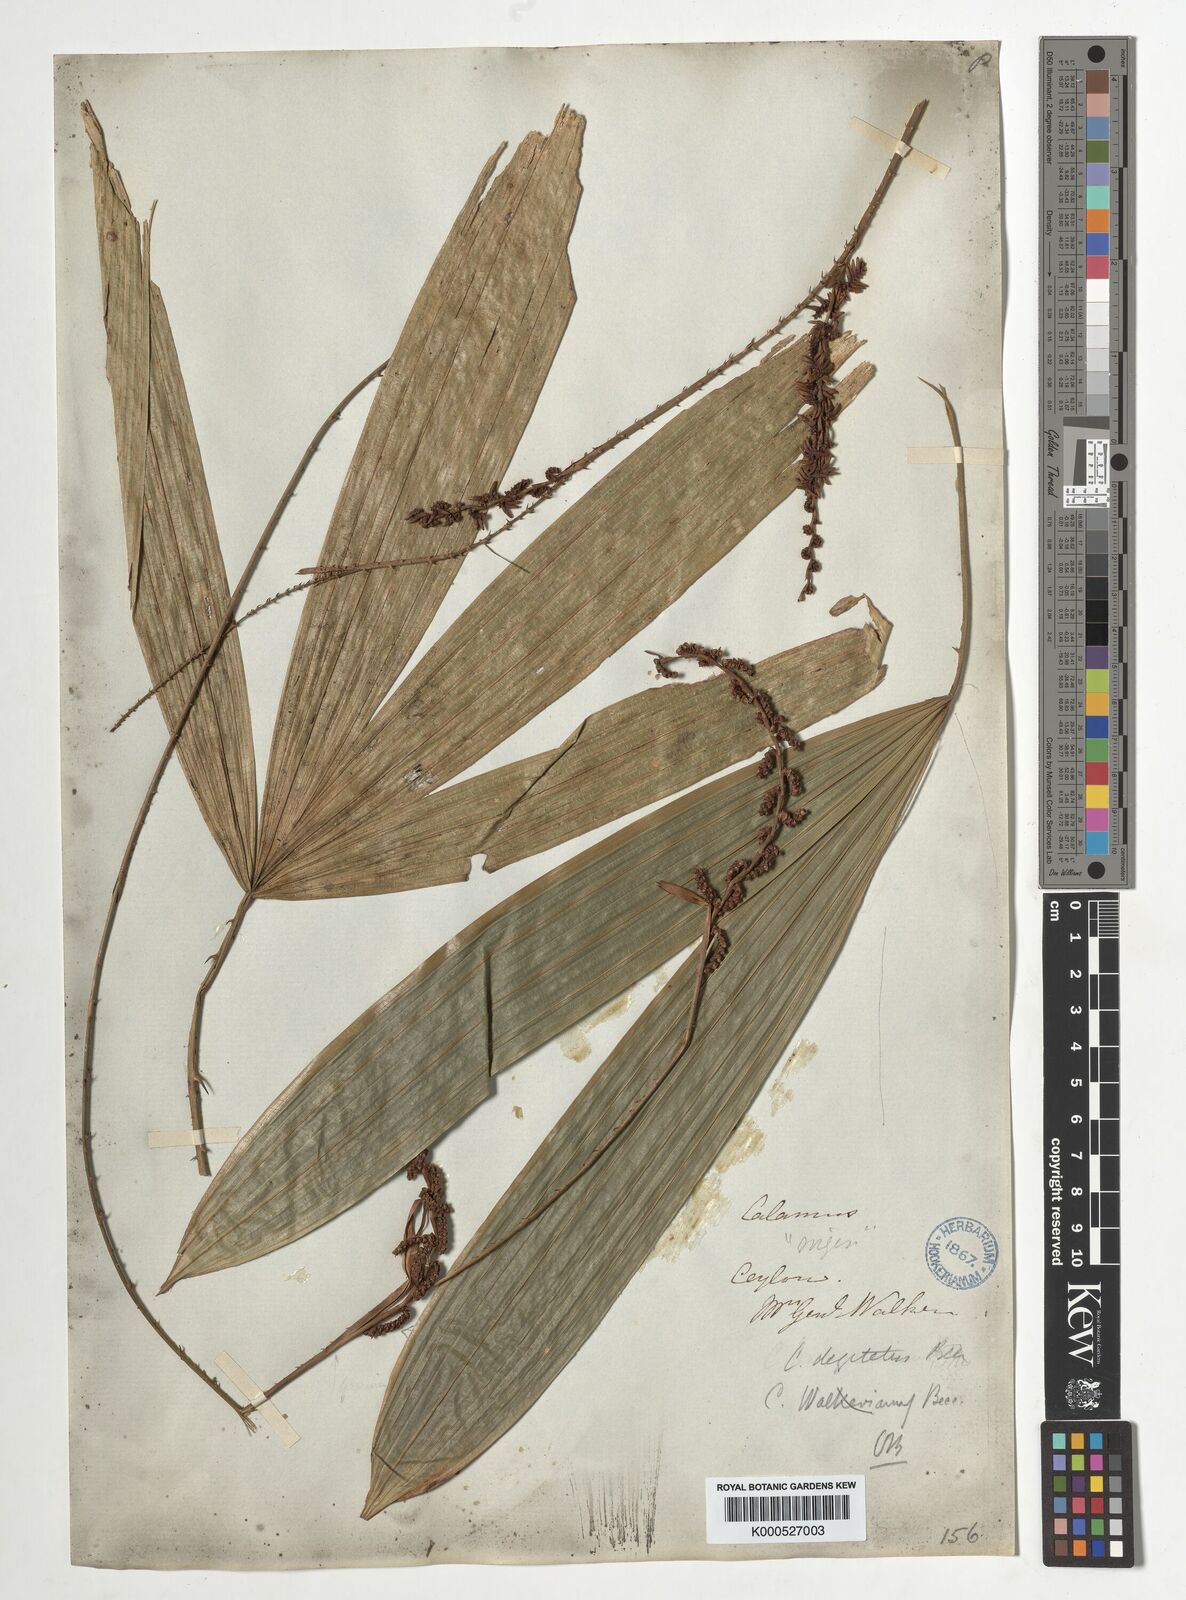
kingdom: Plantae
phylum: Tracheophyta
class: Liliopsida
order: Arecales
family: Arecaceae
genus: Calamus
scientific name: Calamus digitatus
